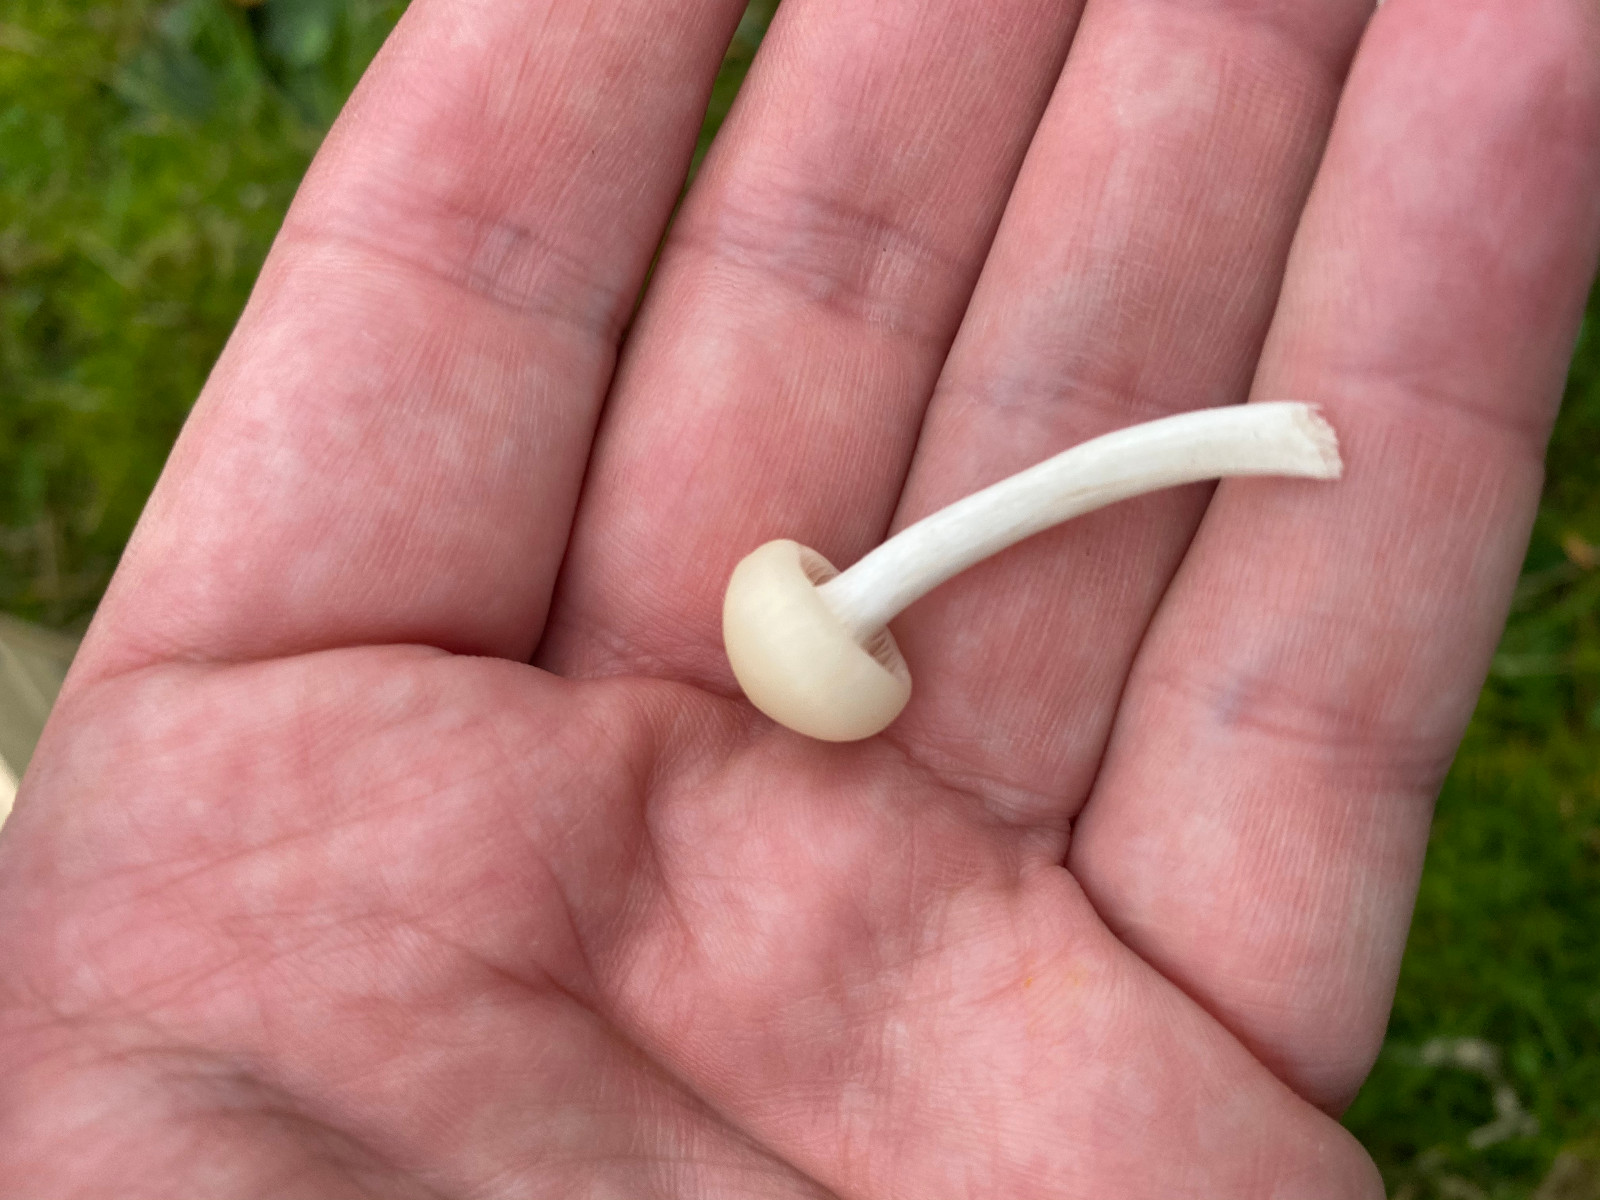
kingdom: Fungi
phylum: Basidiomycota
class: Agaricomycetes
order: Agaricales
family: Hygrophoraceae
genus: Cuphophyllus
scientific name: Cuphophyllus virgineus
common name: snehvid vokshat
